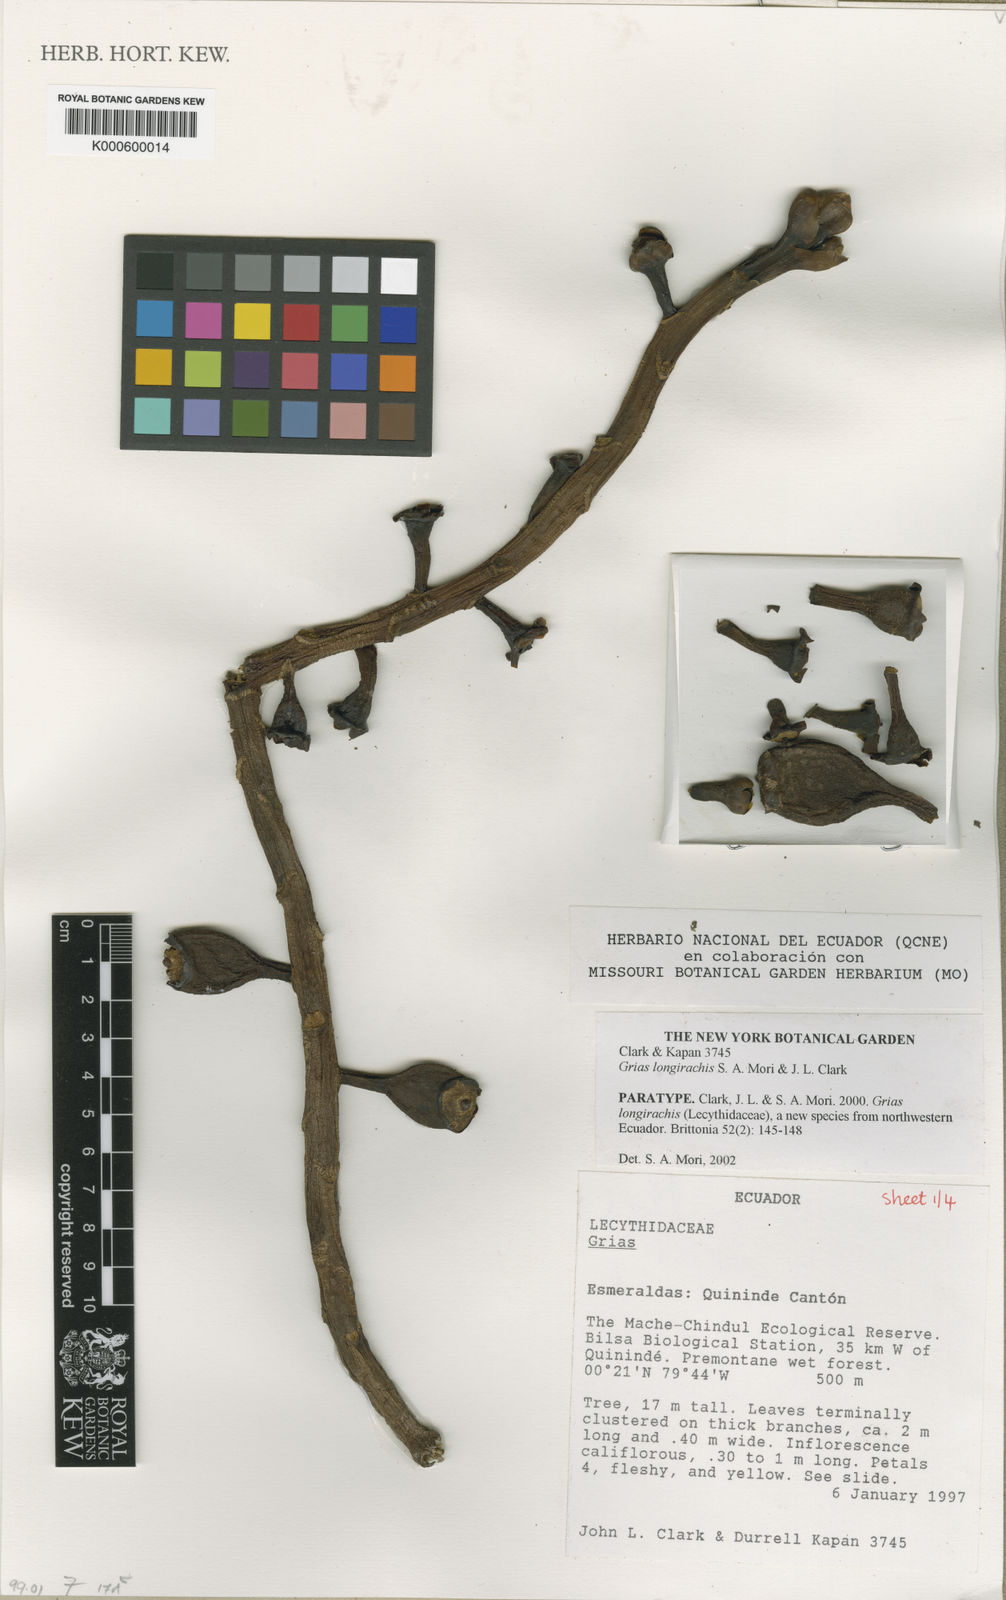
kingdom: Plantae
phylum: Tracheophyta
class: Magnoliopsida
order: Ericales
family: Lecythidaceae
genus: Grias
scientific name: Grias longirachis
